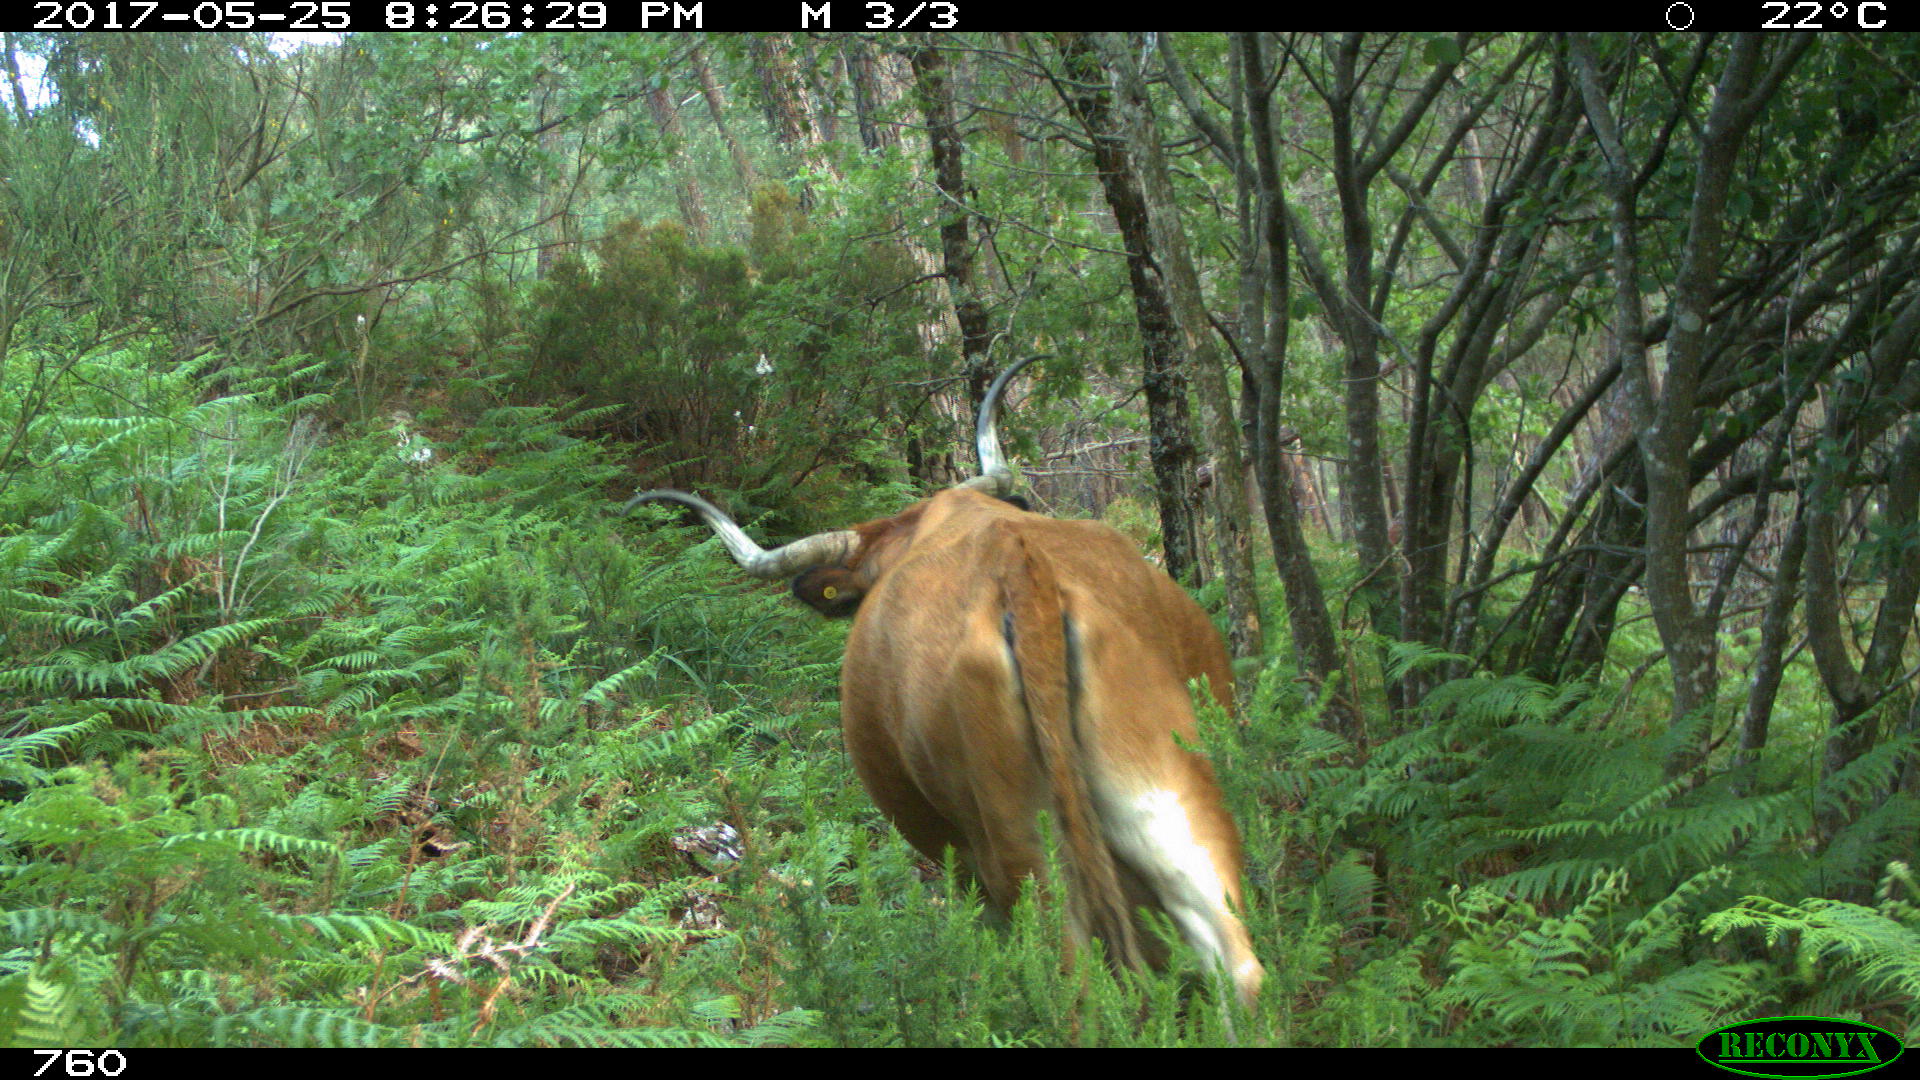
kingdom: Animalia
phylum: Chordata
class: Mammalia
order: Artiodactyla
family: Bovidae
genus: Bos
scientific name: Bos taurus
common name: Domesticated cattle
